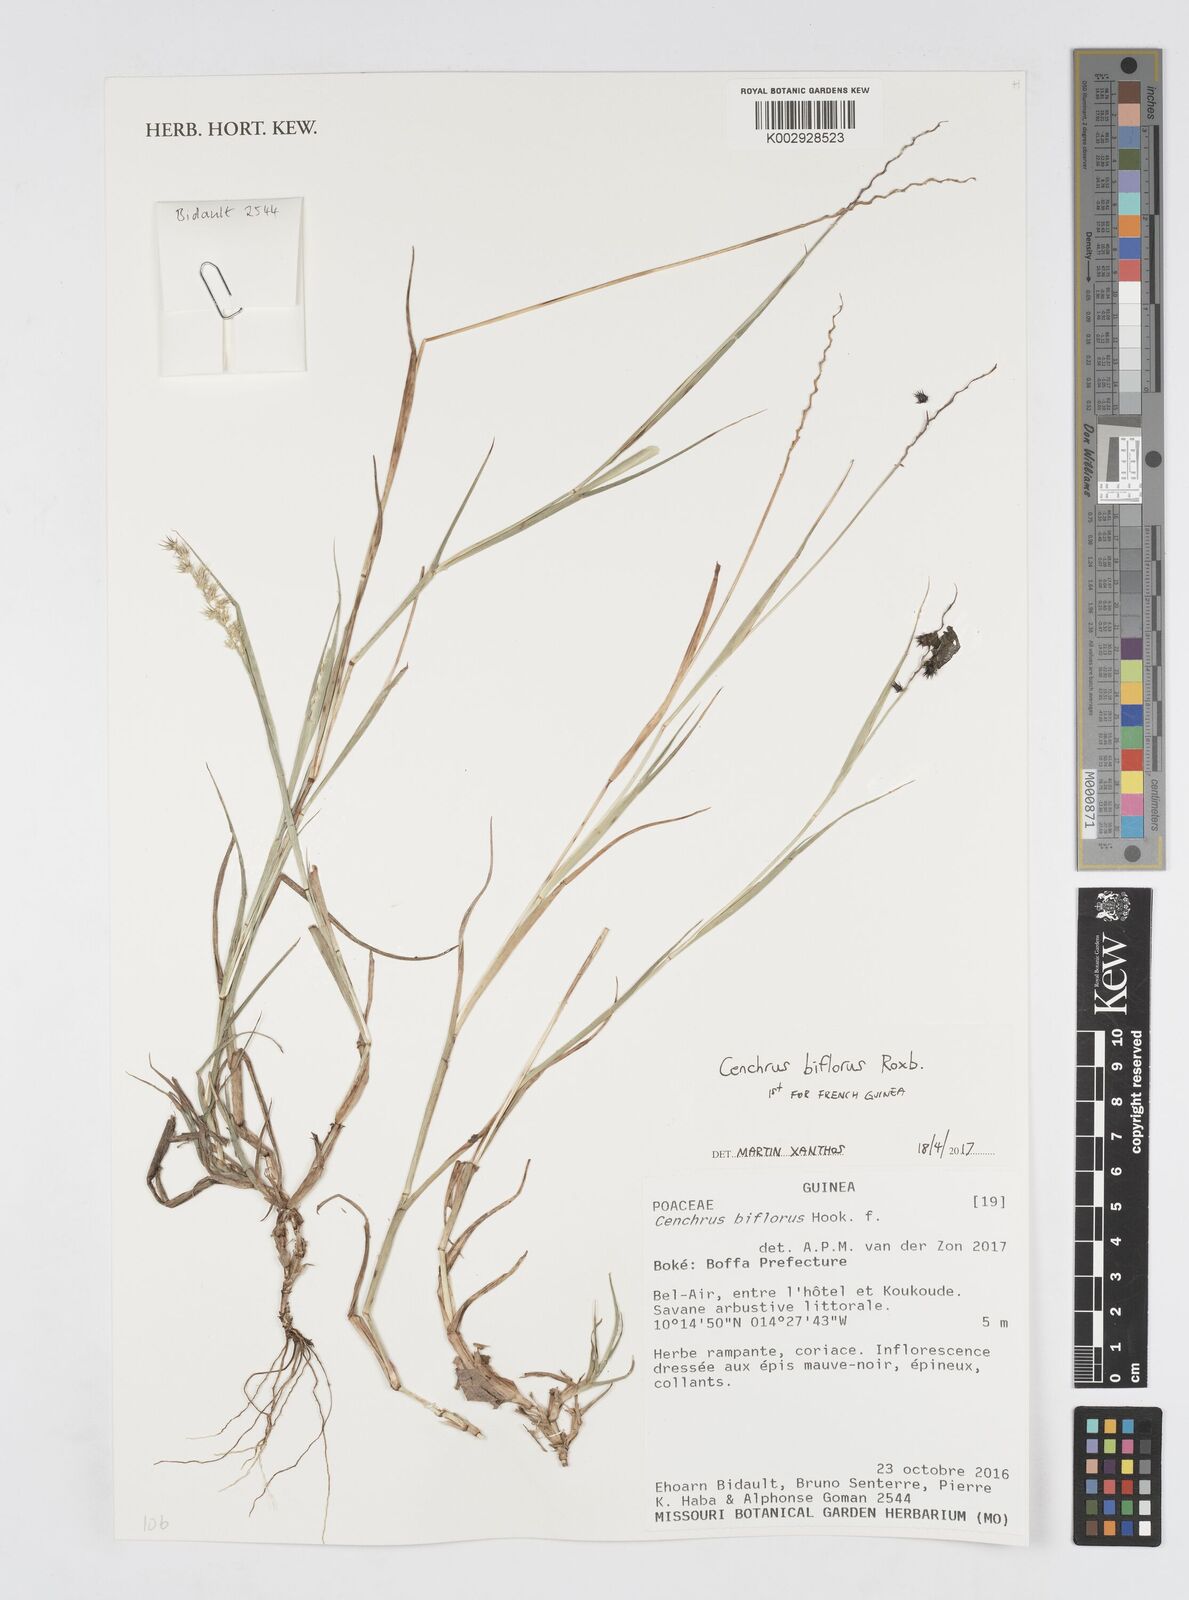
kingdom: Plantae
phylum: Tracheophyta
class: Liliopsida
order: Poales
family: Poaceae
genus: Cenchrus
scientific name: Cenchrus biflorus
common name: Indian sandbur
